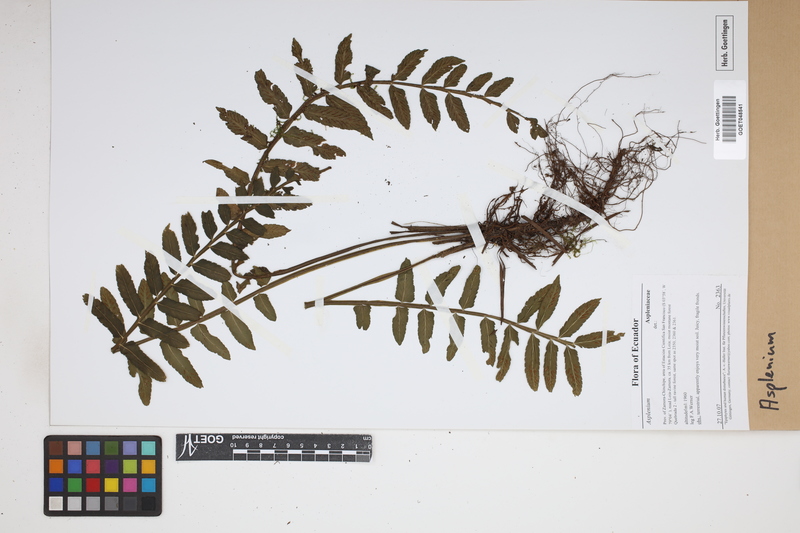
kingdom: Plantae
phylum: Tracheophyta
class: Polypodiopsida
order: Polypodiales
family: Aspleniaceae
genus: Asplenium
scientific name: Asplenium
